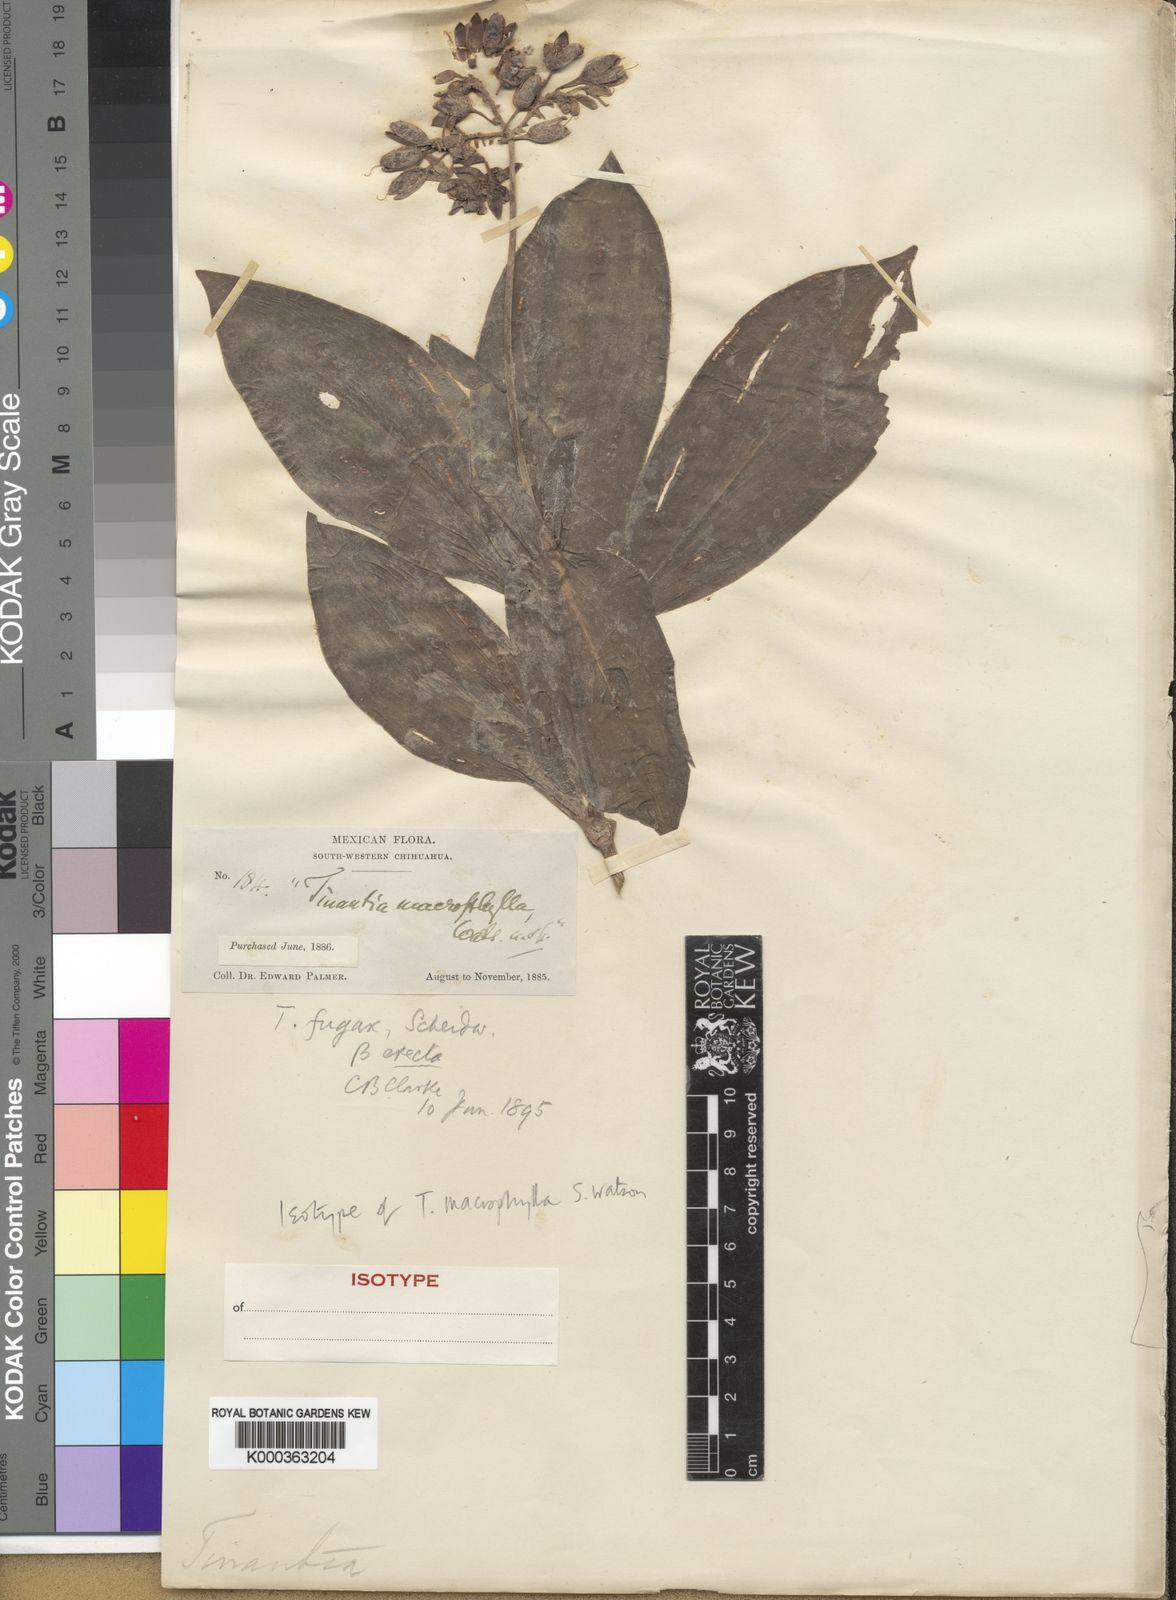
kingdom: Plantae
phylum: Tracheophyta
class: Liliopsida
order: Commelinales
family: Commelinaceae
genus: Tinantia
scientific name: Tinantia macrophylla
